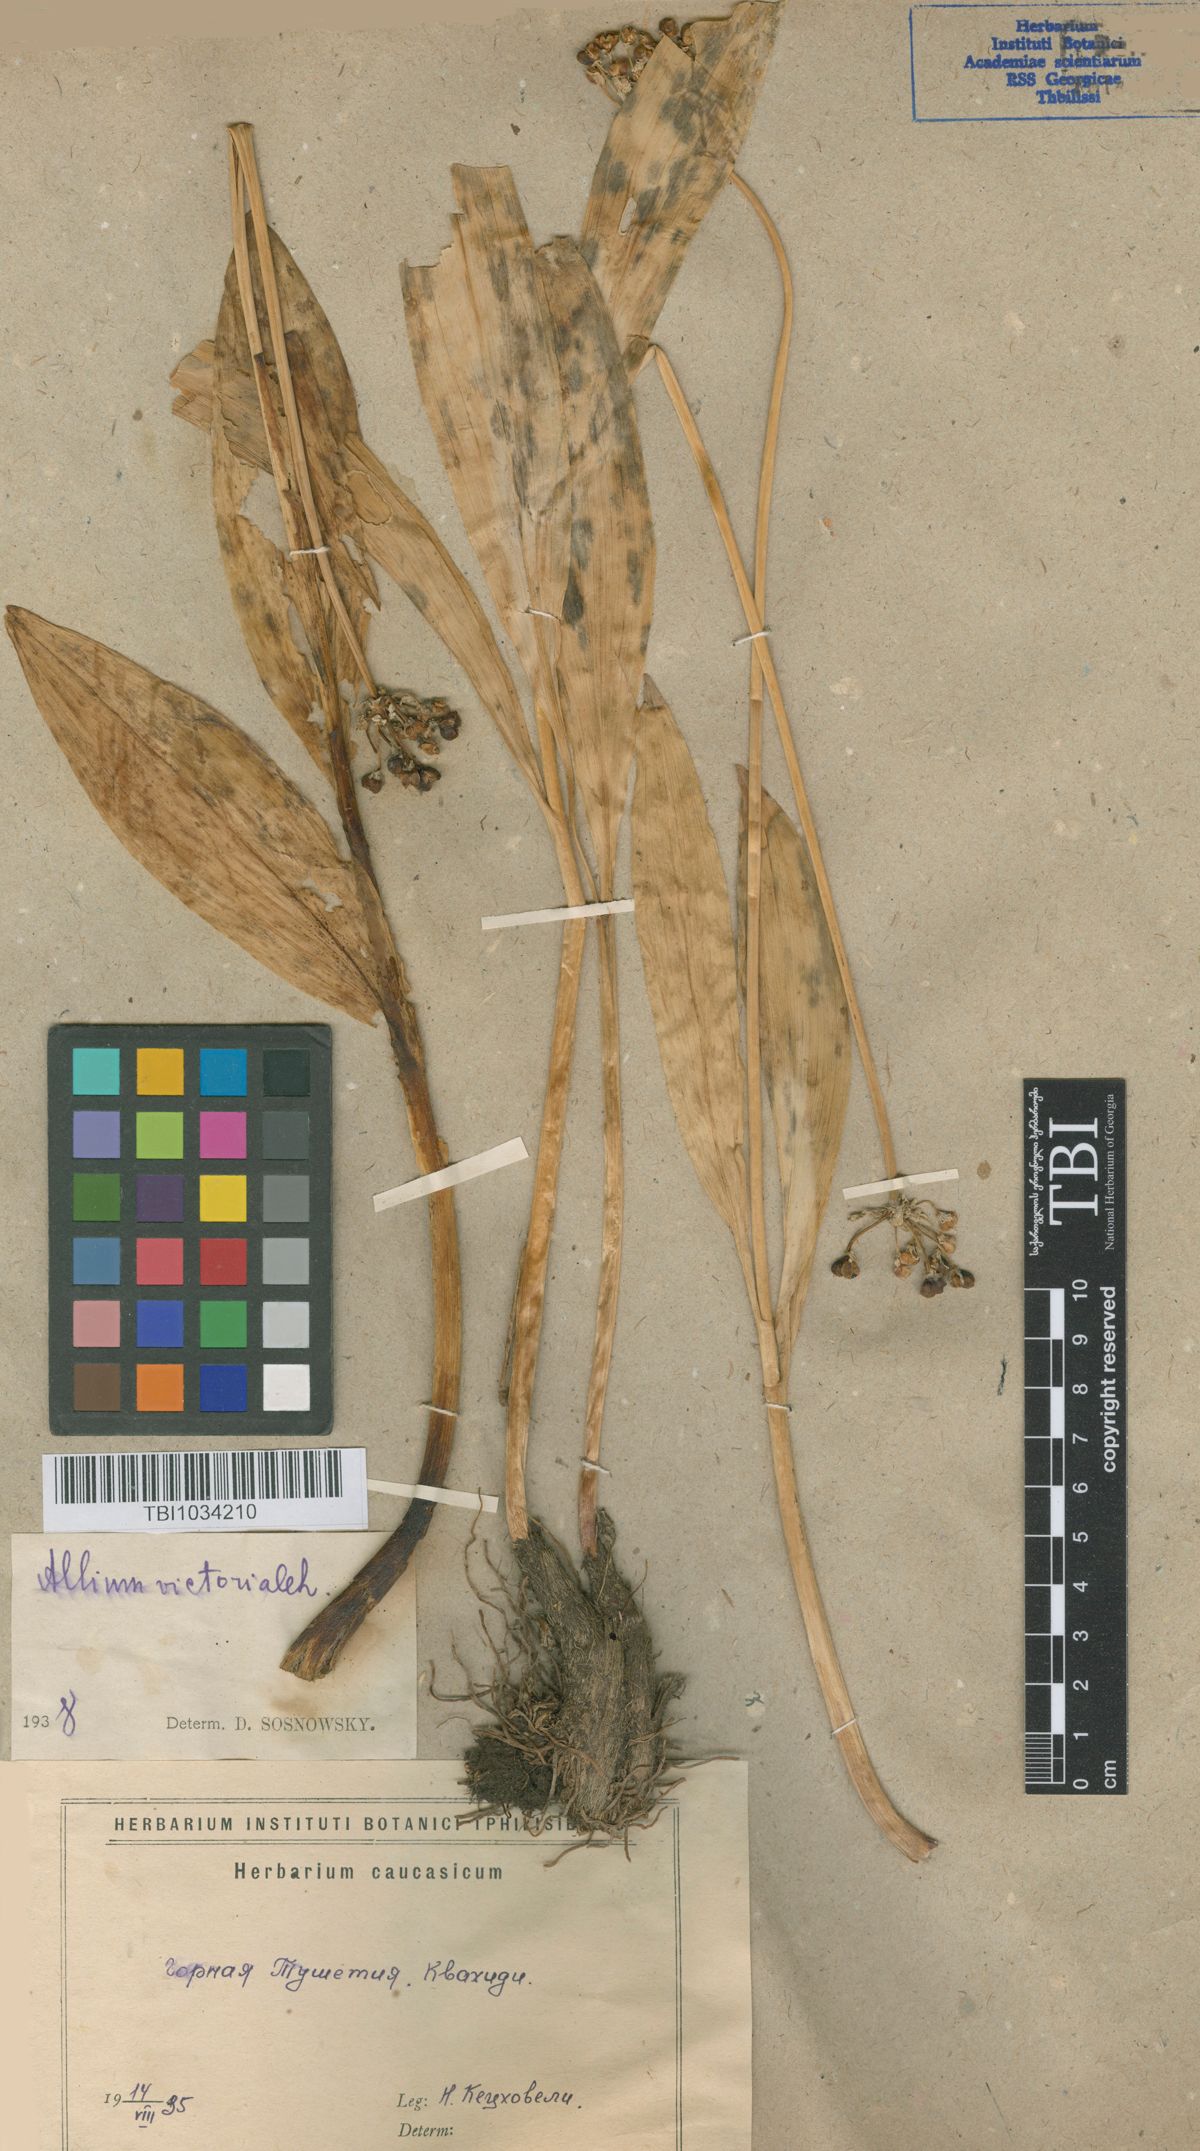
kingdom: Plantae
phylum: Tracheophyta
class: Liliopsida
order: Asparagales
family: Amaryllidaceae
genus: Allium
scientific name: Allium victorialis
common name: Alpine leek
